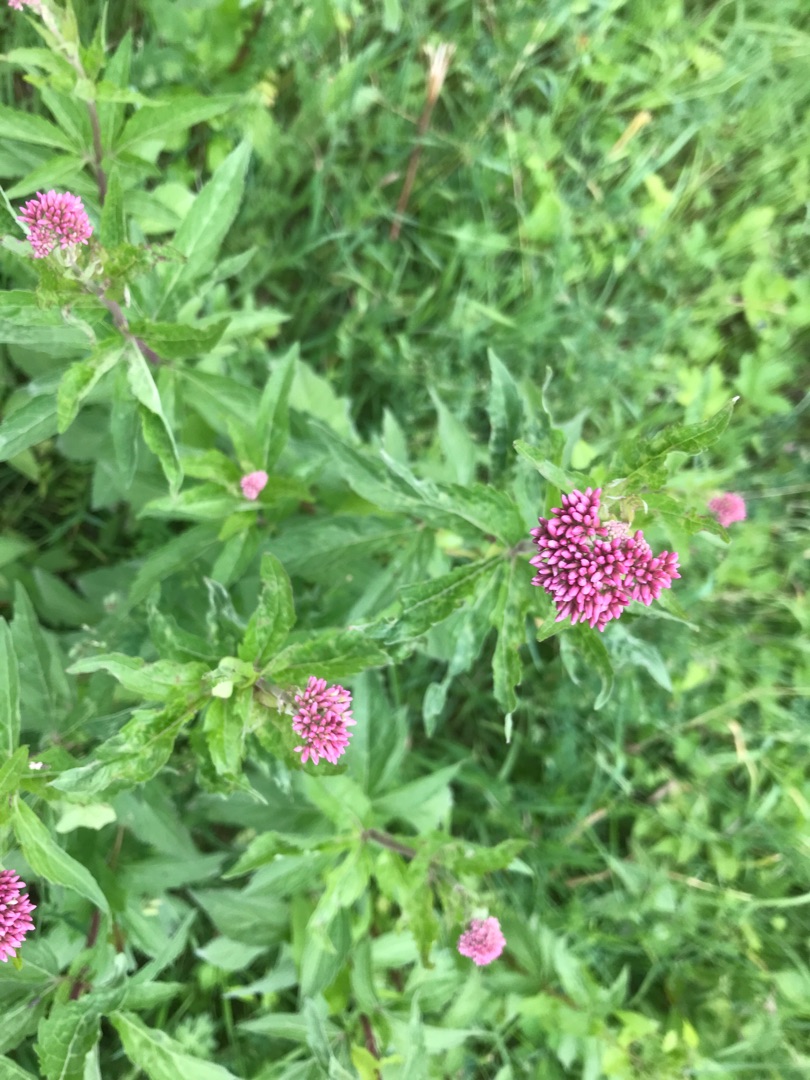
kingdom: Plantae
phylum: Tracheophyta
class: Magnoliopsida
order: Asterales
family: Asteraceae
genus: Eupatorium
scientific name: Eupatorium cannabinum
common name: Hjortetrøst
